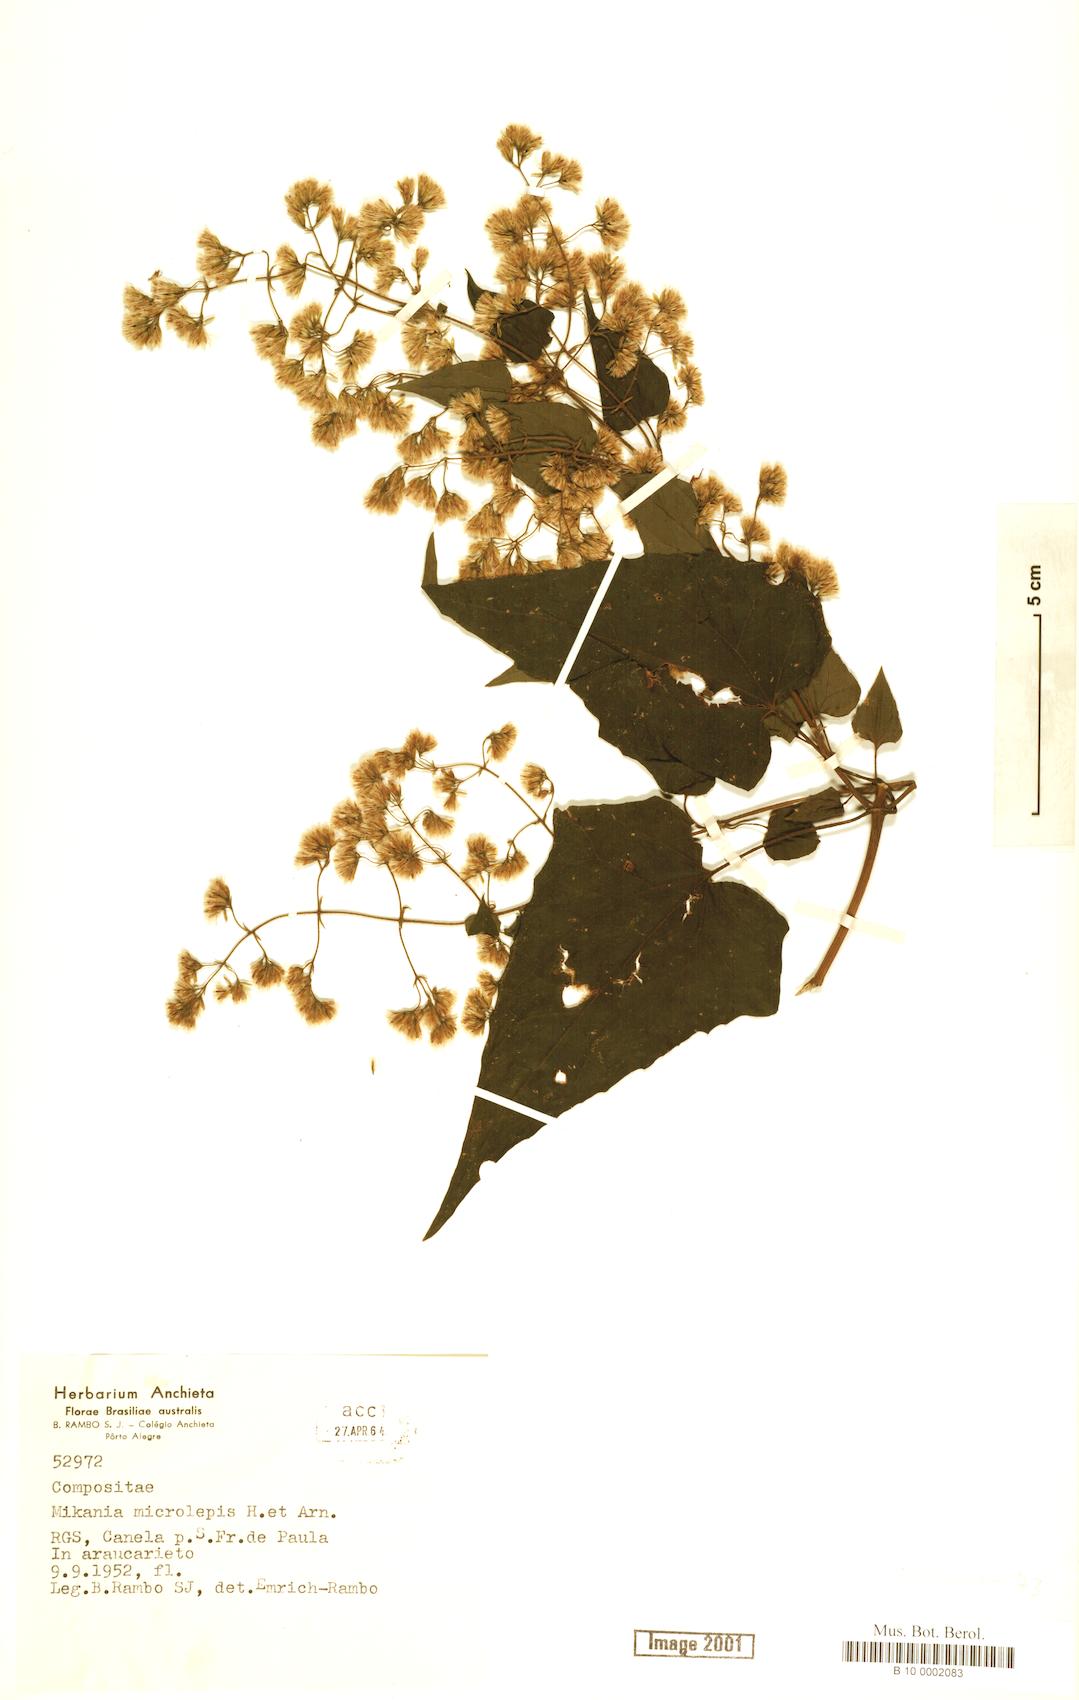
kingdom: Plantae
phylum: Tracheophyta
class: Magnoliopsida
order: Asterales
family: Asteraceae
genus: Mikania
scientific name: Mikania microlepis
